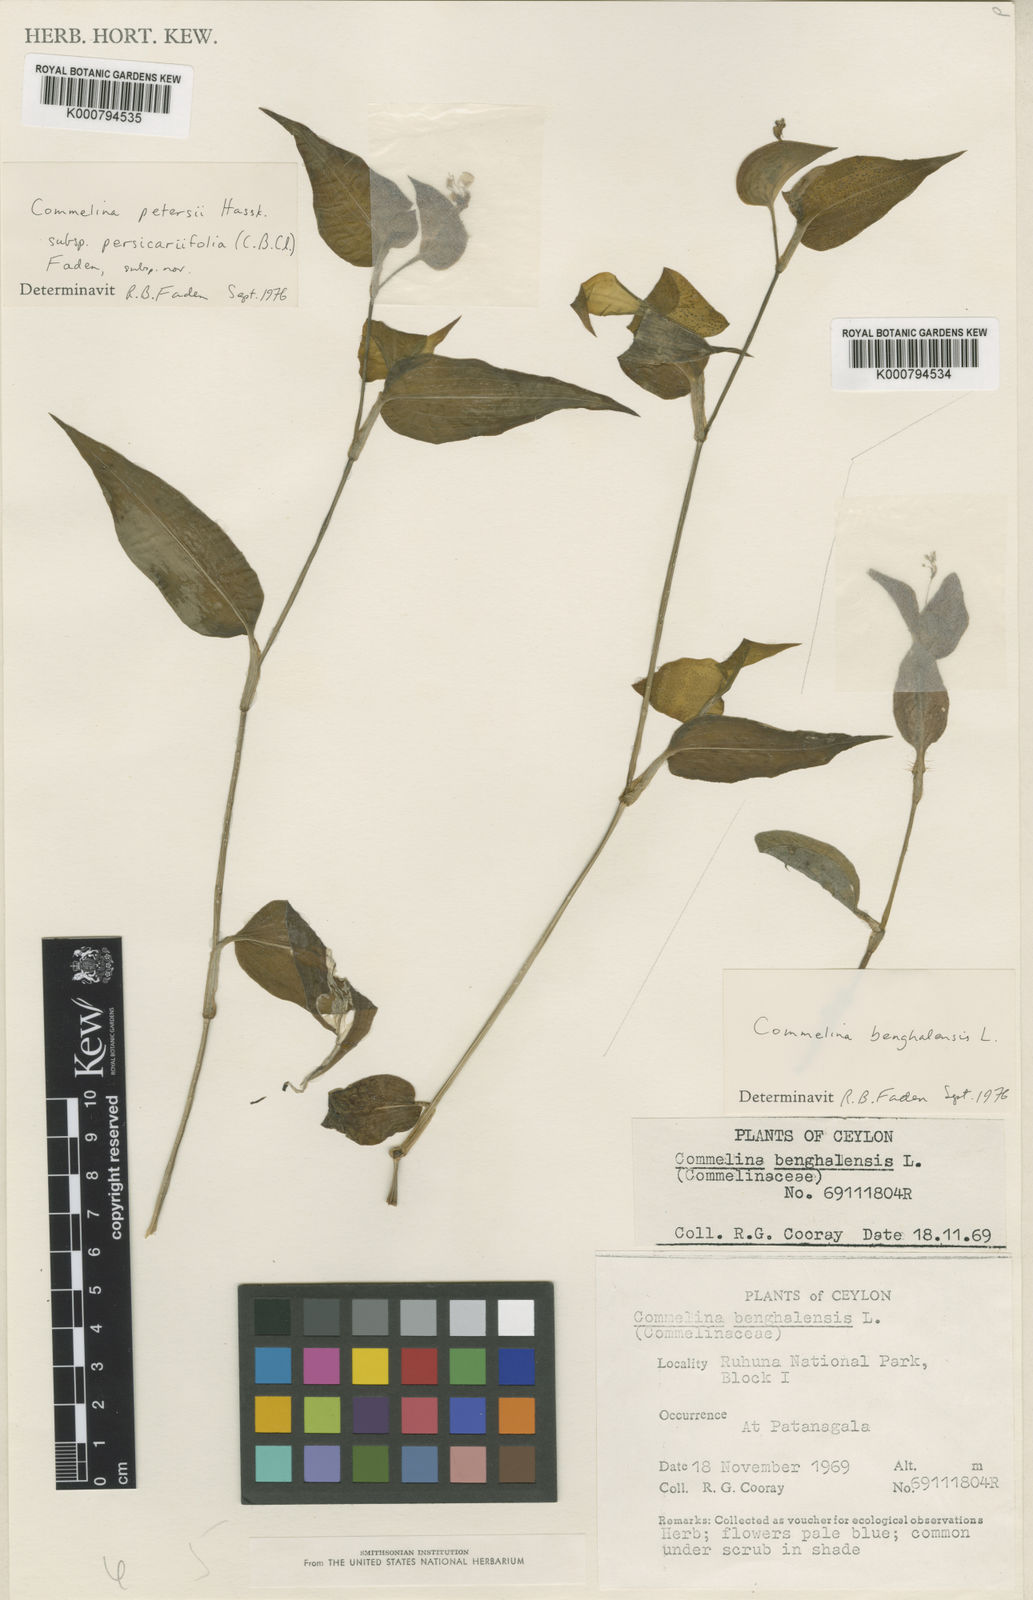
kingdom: Plantae
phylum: Tracheophyta
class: Liliopsida
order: Commelinales
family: Commelinaceae
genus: Commelina
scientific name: Commelina petersii
